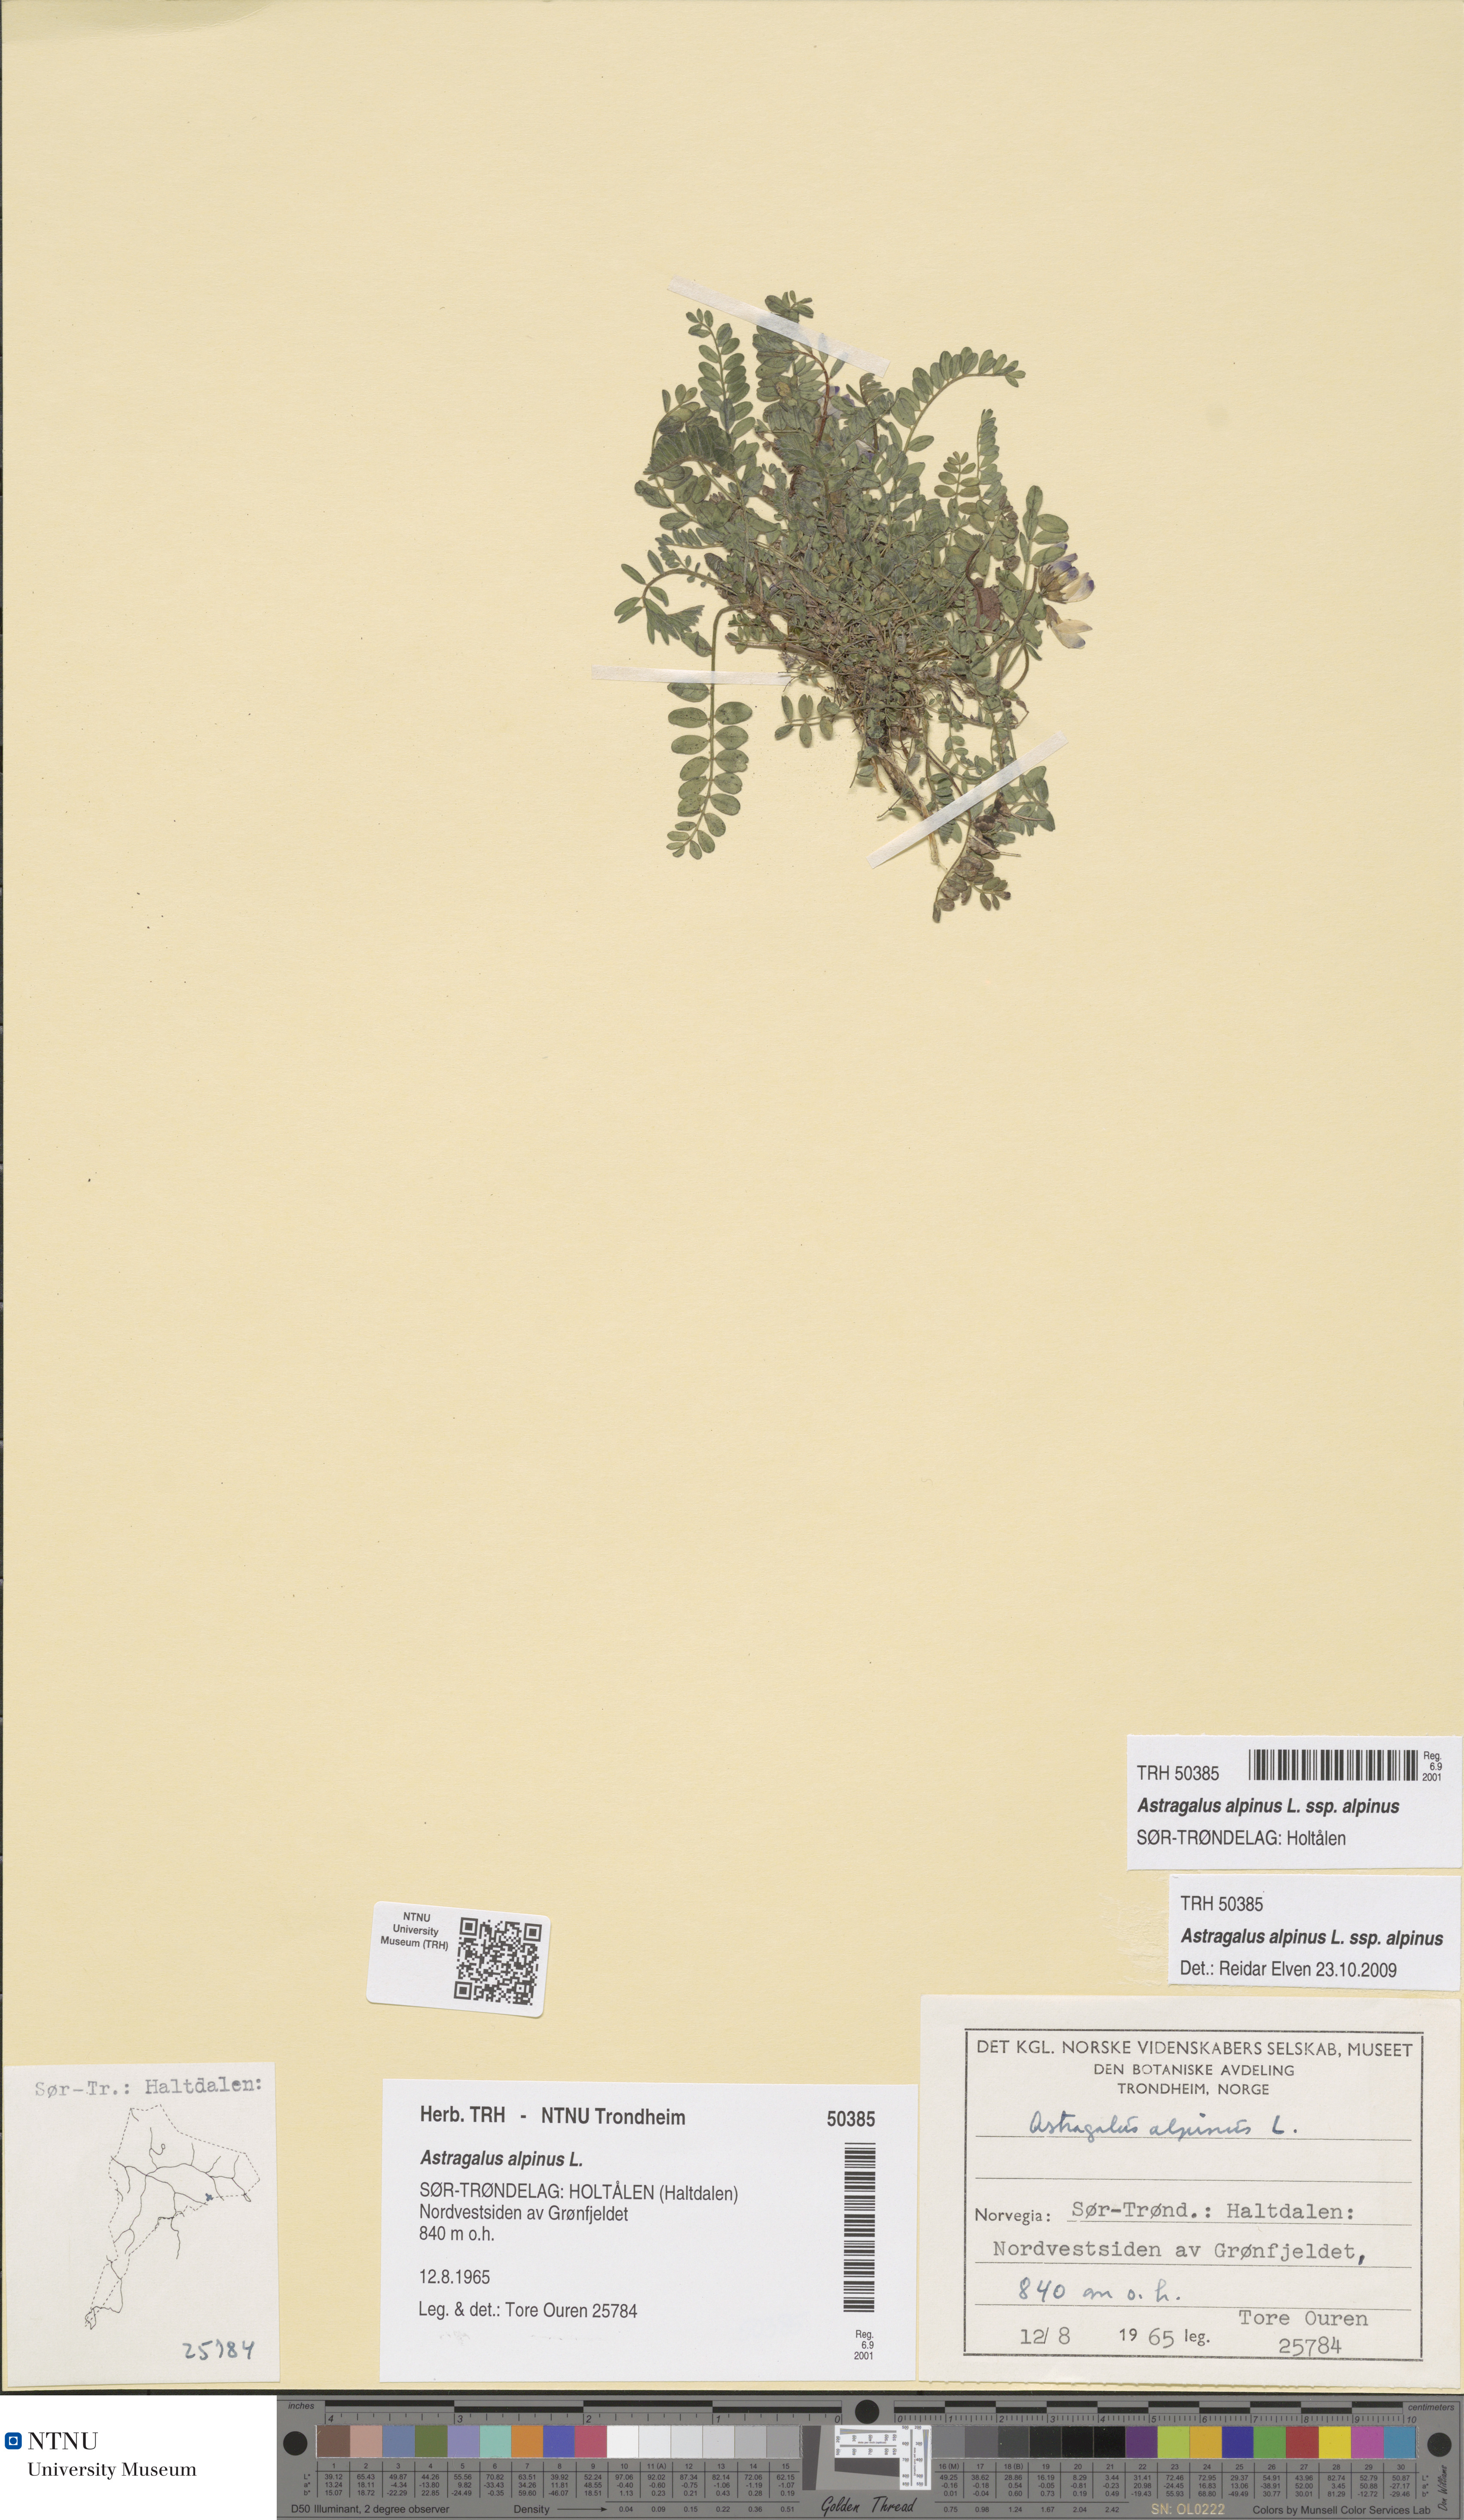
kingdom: Plantae
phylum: Tracheophyta
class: Magnoliopsida
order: Fabales
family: Fabaceae
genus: Astragalus
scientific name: Astragalus alpinus
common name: Alpine milk-vetch
